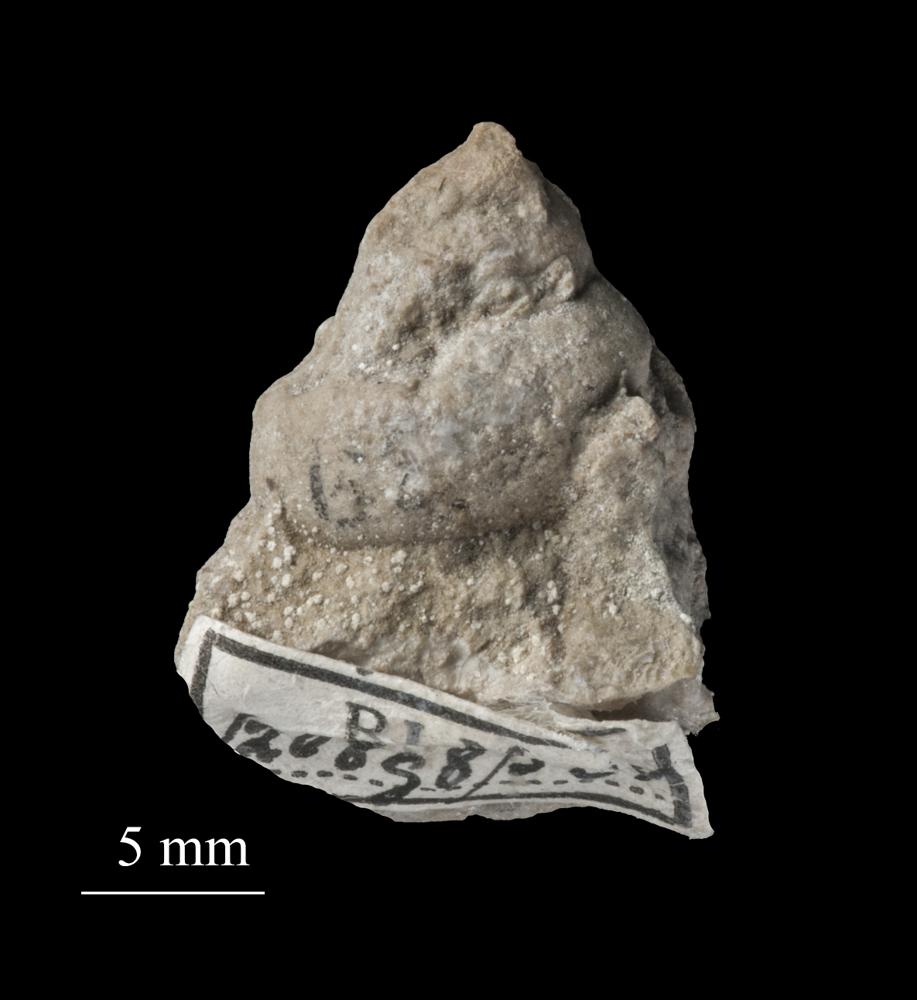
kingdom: Animalia
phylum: Mollusca
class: Gastropoda
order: Pleurotomariida
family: Phanerotrematidae
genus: Brachytomaria
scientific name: Brachytomaria Pleurotomaria baltica
